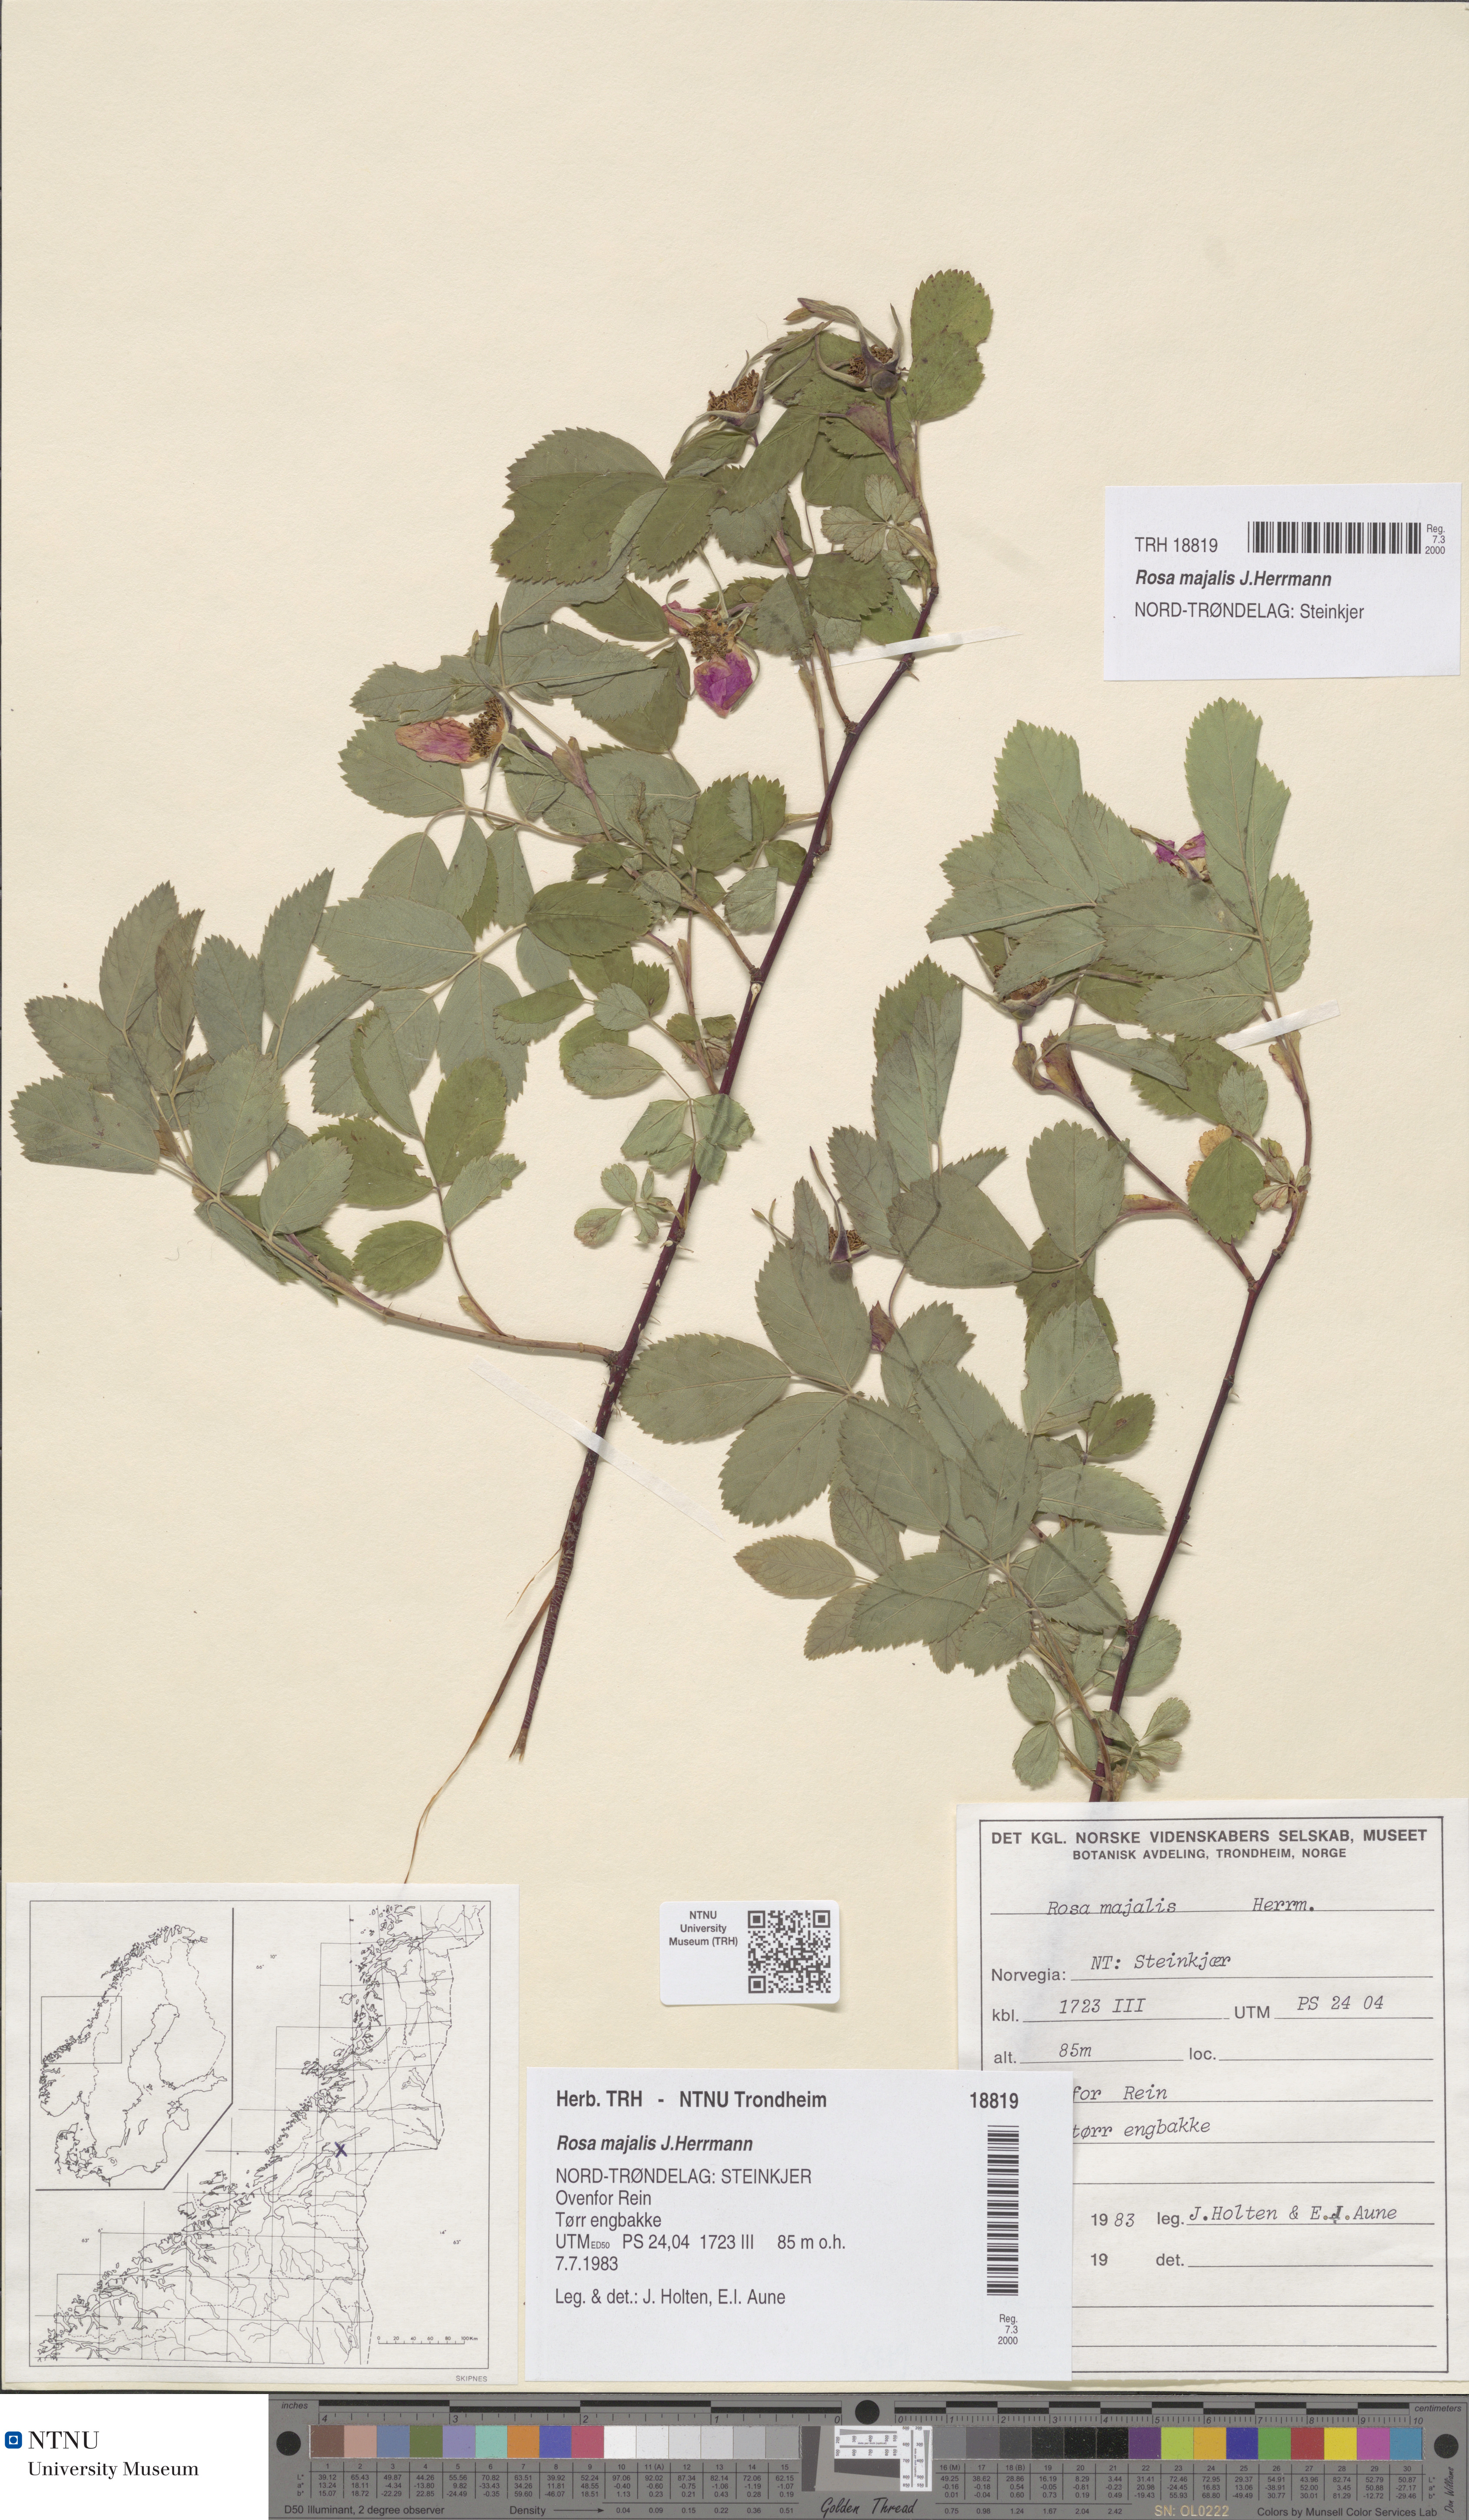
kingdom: Plantae
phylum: Tracheophyta
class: Magnoliopsida
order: Rosales
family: Rosaceae
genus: Rosa
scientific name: Rosa majalis
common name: Cinnamon rose
